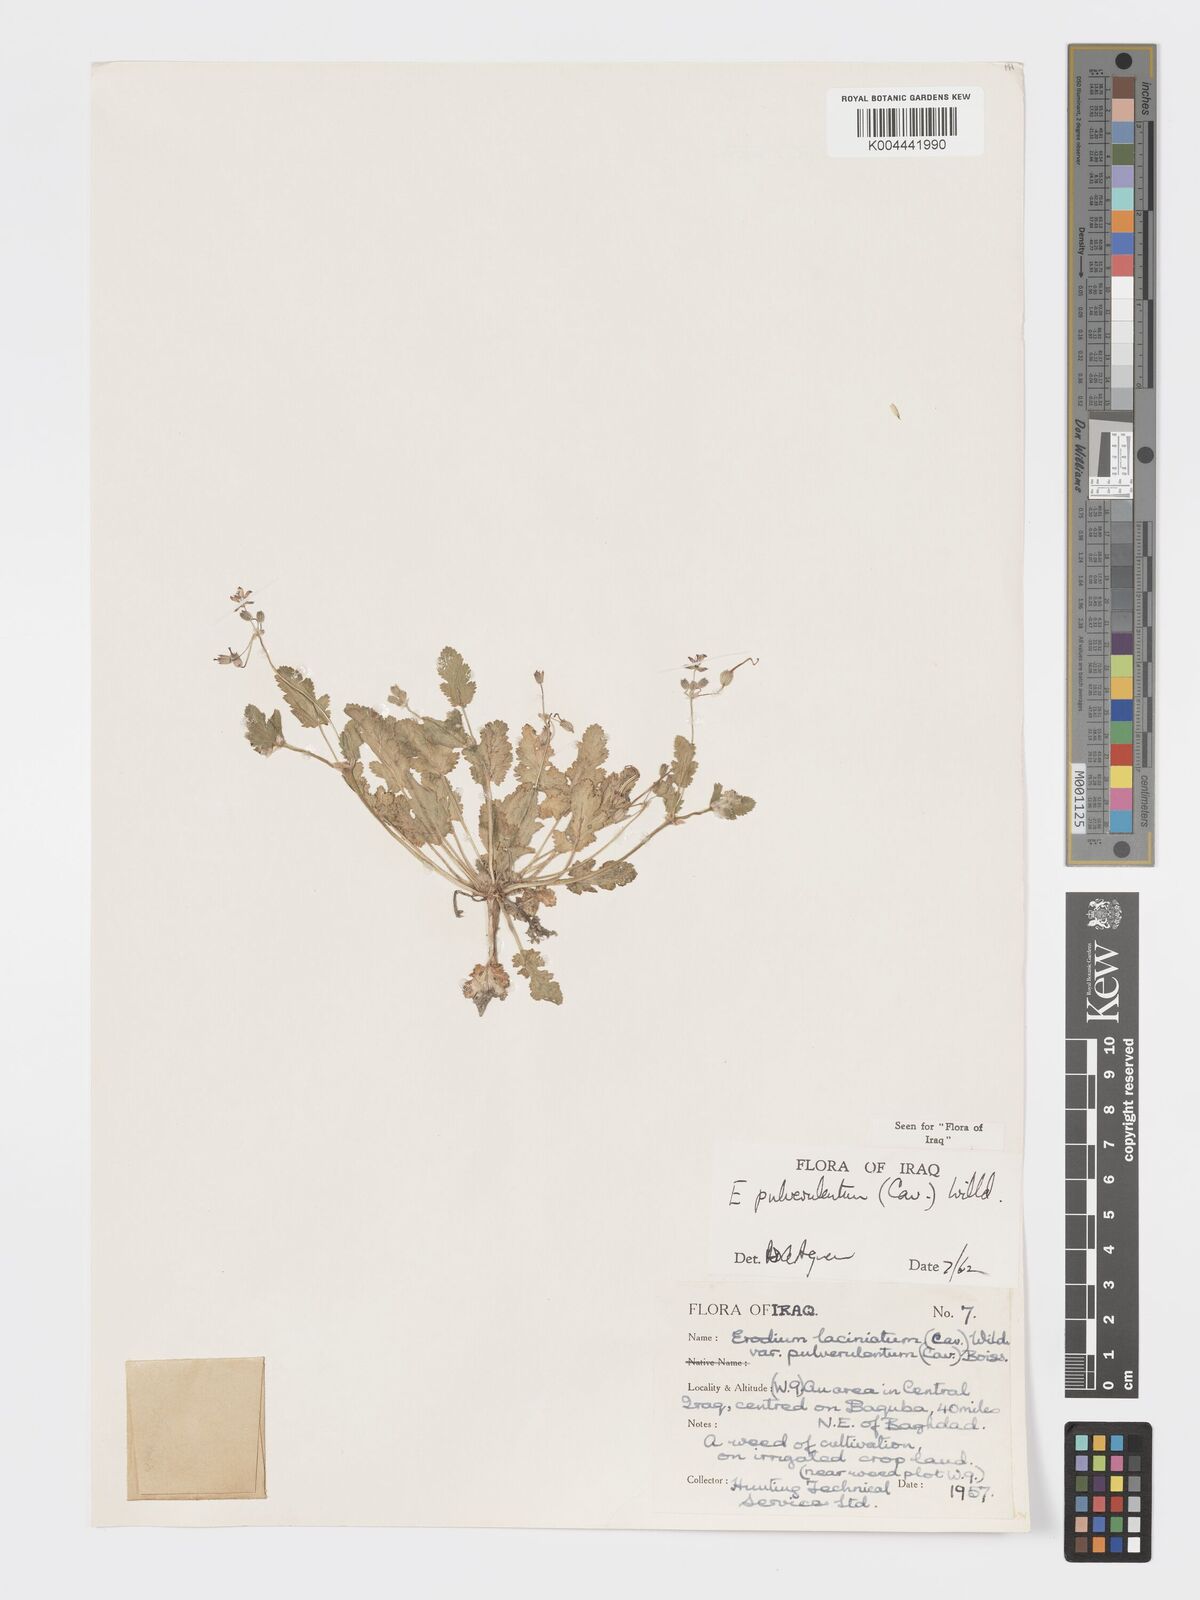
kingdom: Plantae
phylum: Tracheophyta
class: Magnoliopsida
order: Geraniales
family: Geraniaceae
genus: Erodium
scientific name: Erodium laciniatum
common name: Cutleaf stork's bill
